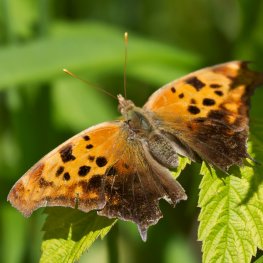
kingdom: Animalia
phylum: Arthropoda
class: Insecta
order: Lepidoptera
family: Nymphalidae
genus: Polygonia
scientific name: Polygonia interrogationis
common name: Question Mark
